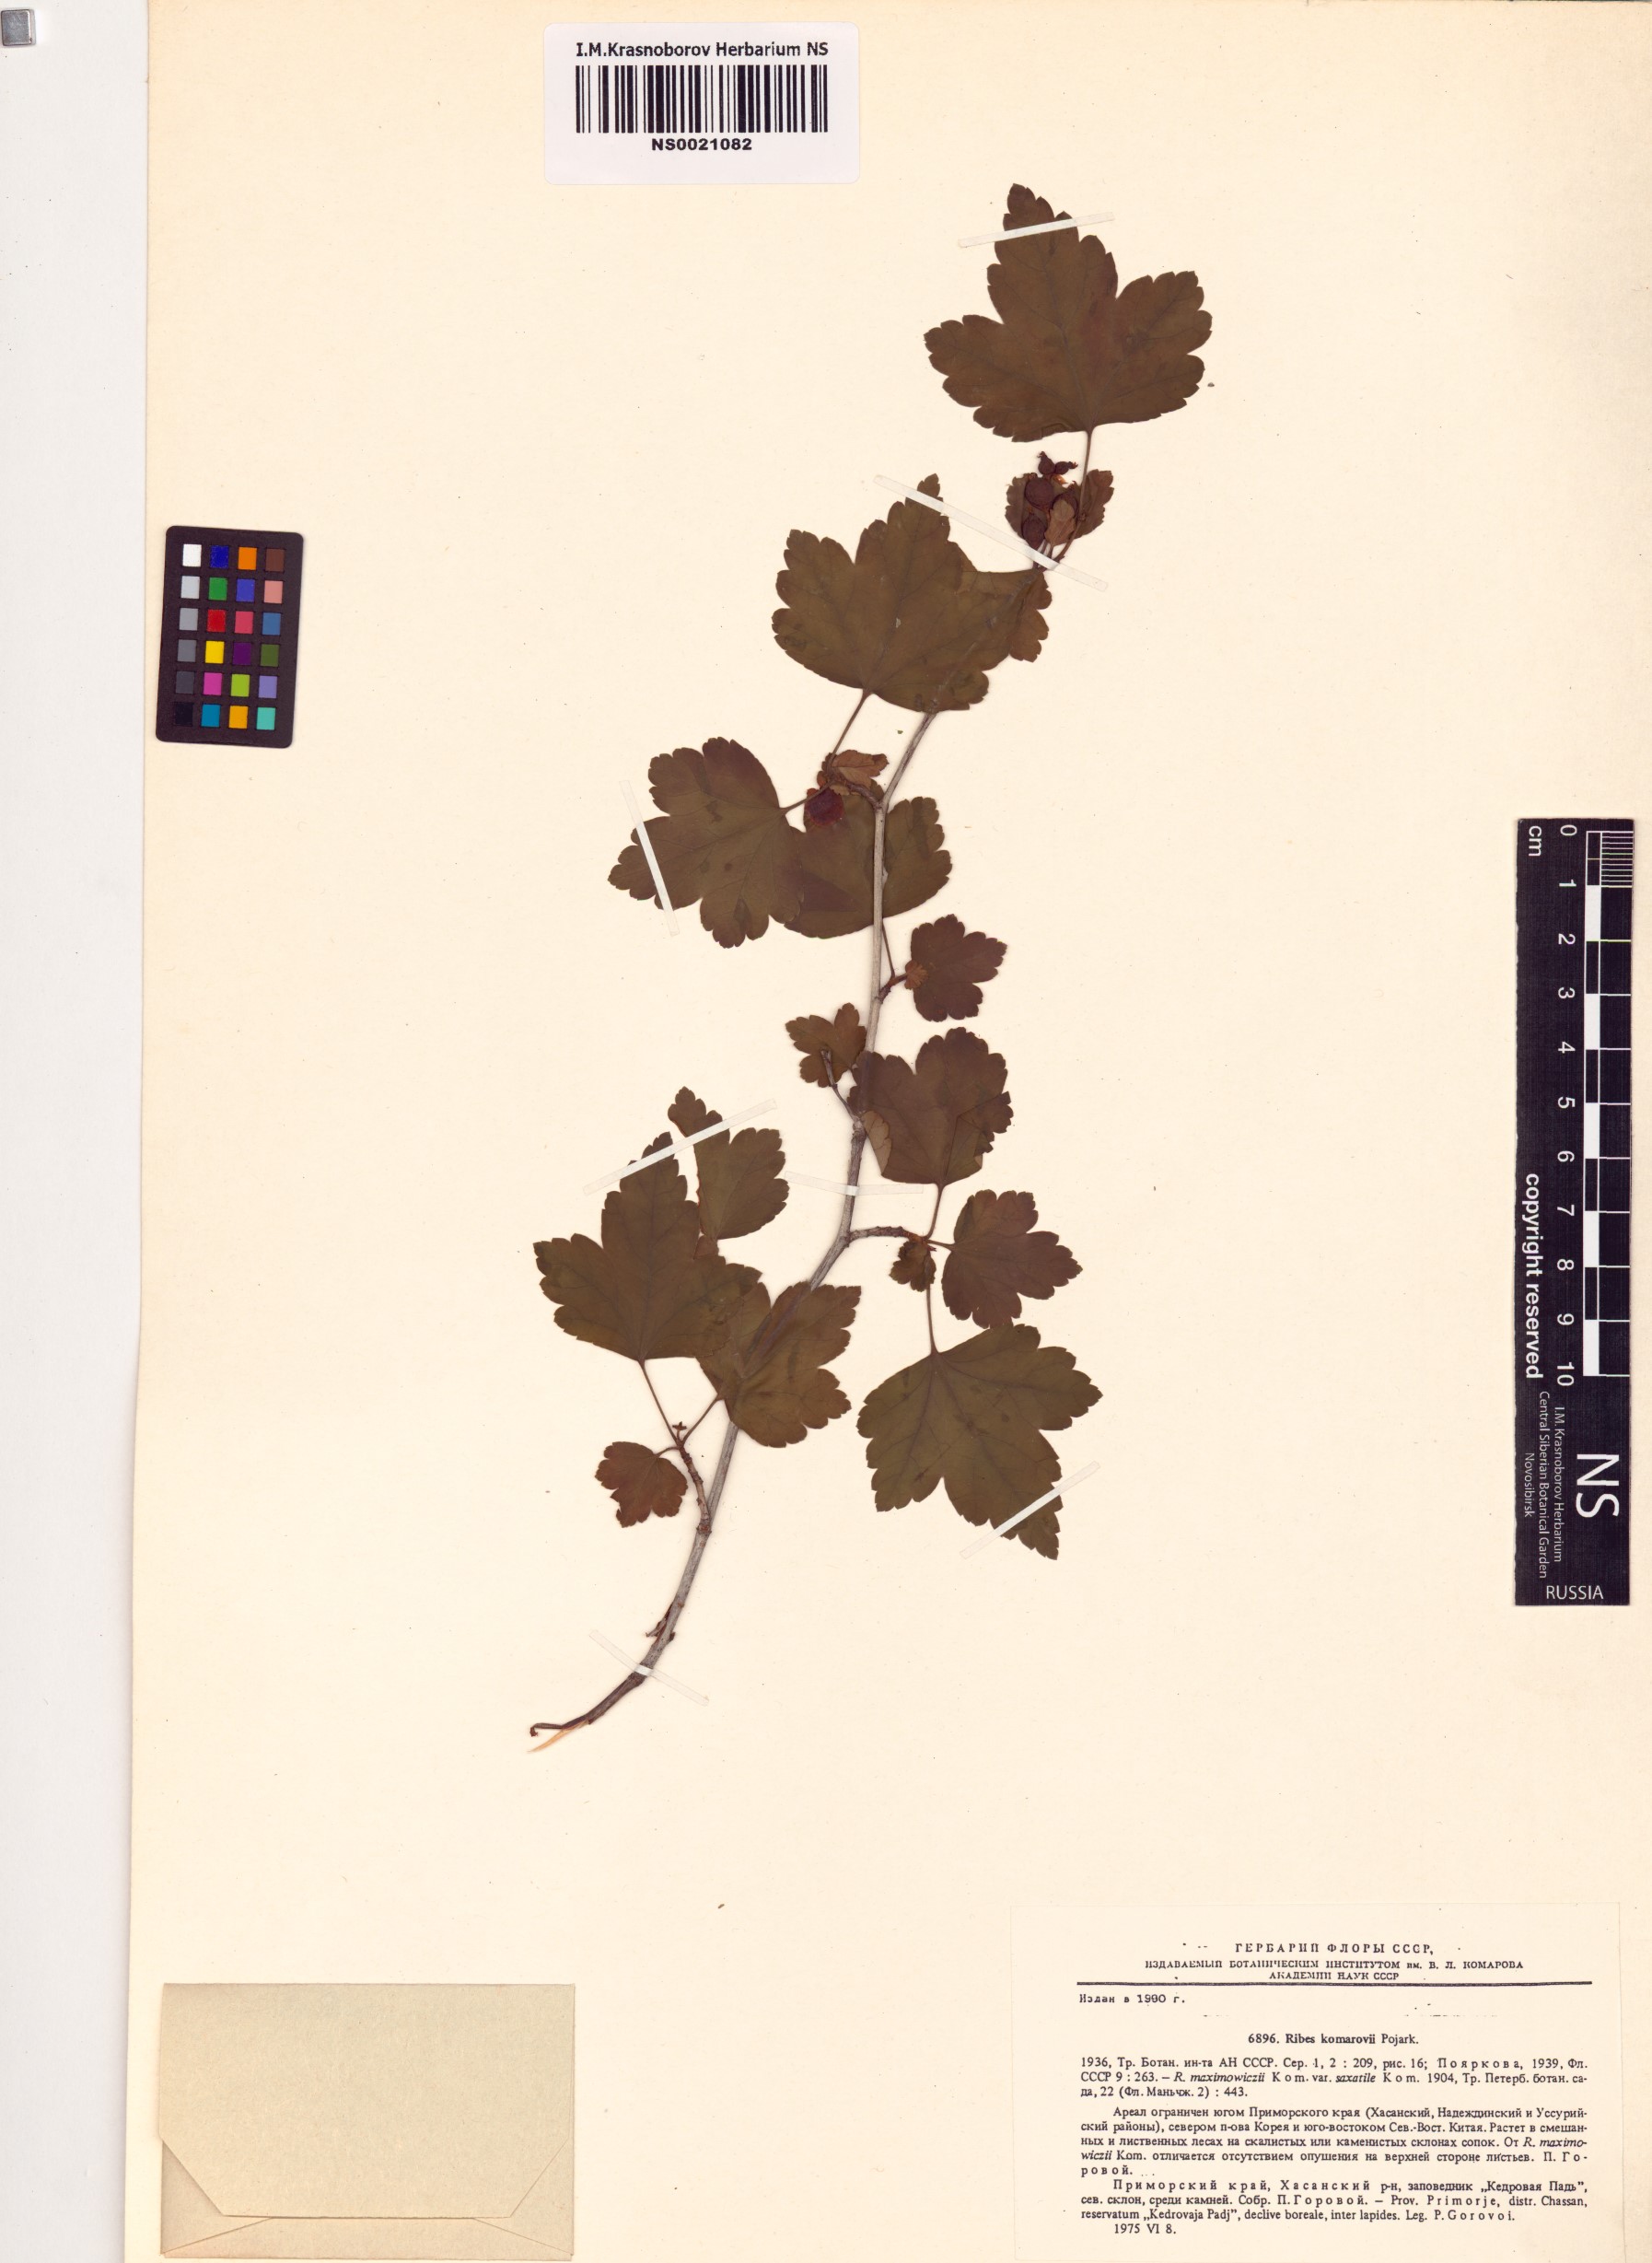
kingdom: Plantae
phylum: Tracheophyta
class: Magnoliopsida
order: Saxifragales
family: Grossulariaceae
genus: Ribes
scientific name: Ribes komarovii
